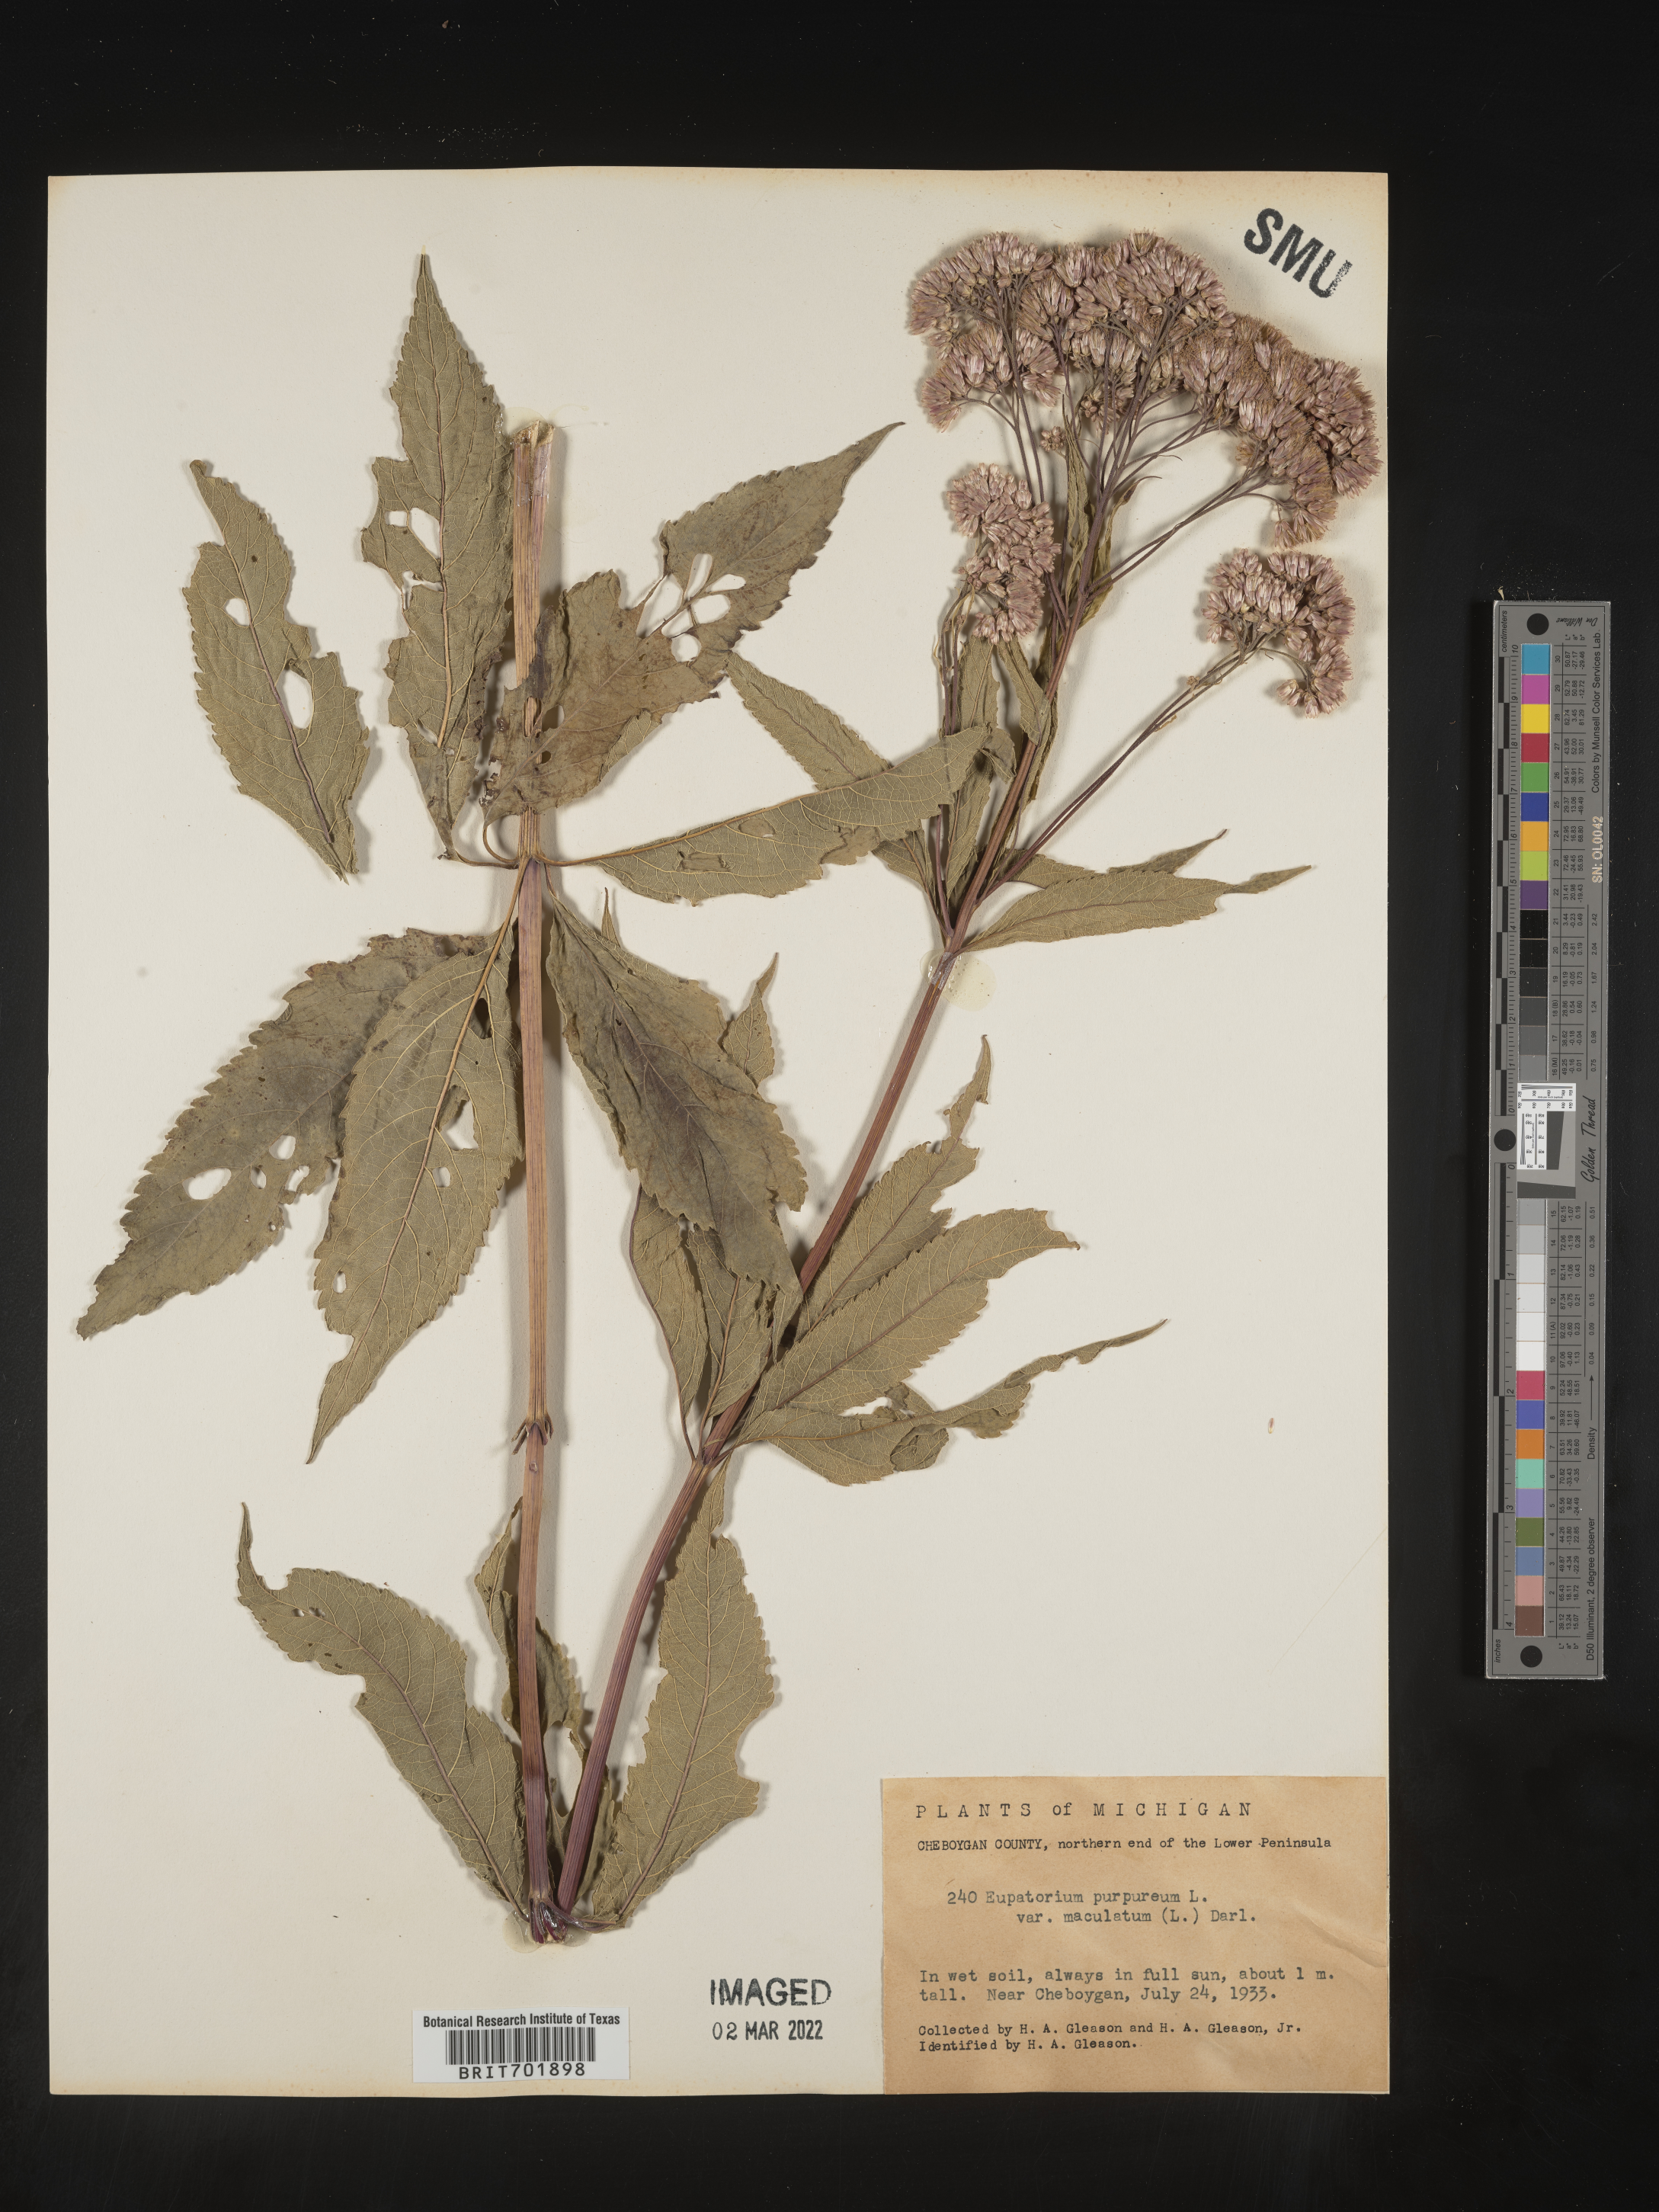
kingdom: Plantae
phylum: Tracheophyta
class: Magnoliopsida
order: Asterales
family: Asteraceae
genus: Eupatorium
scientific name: Eupatorium quaternum
